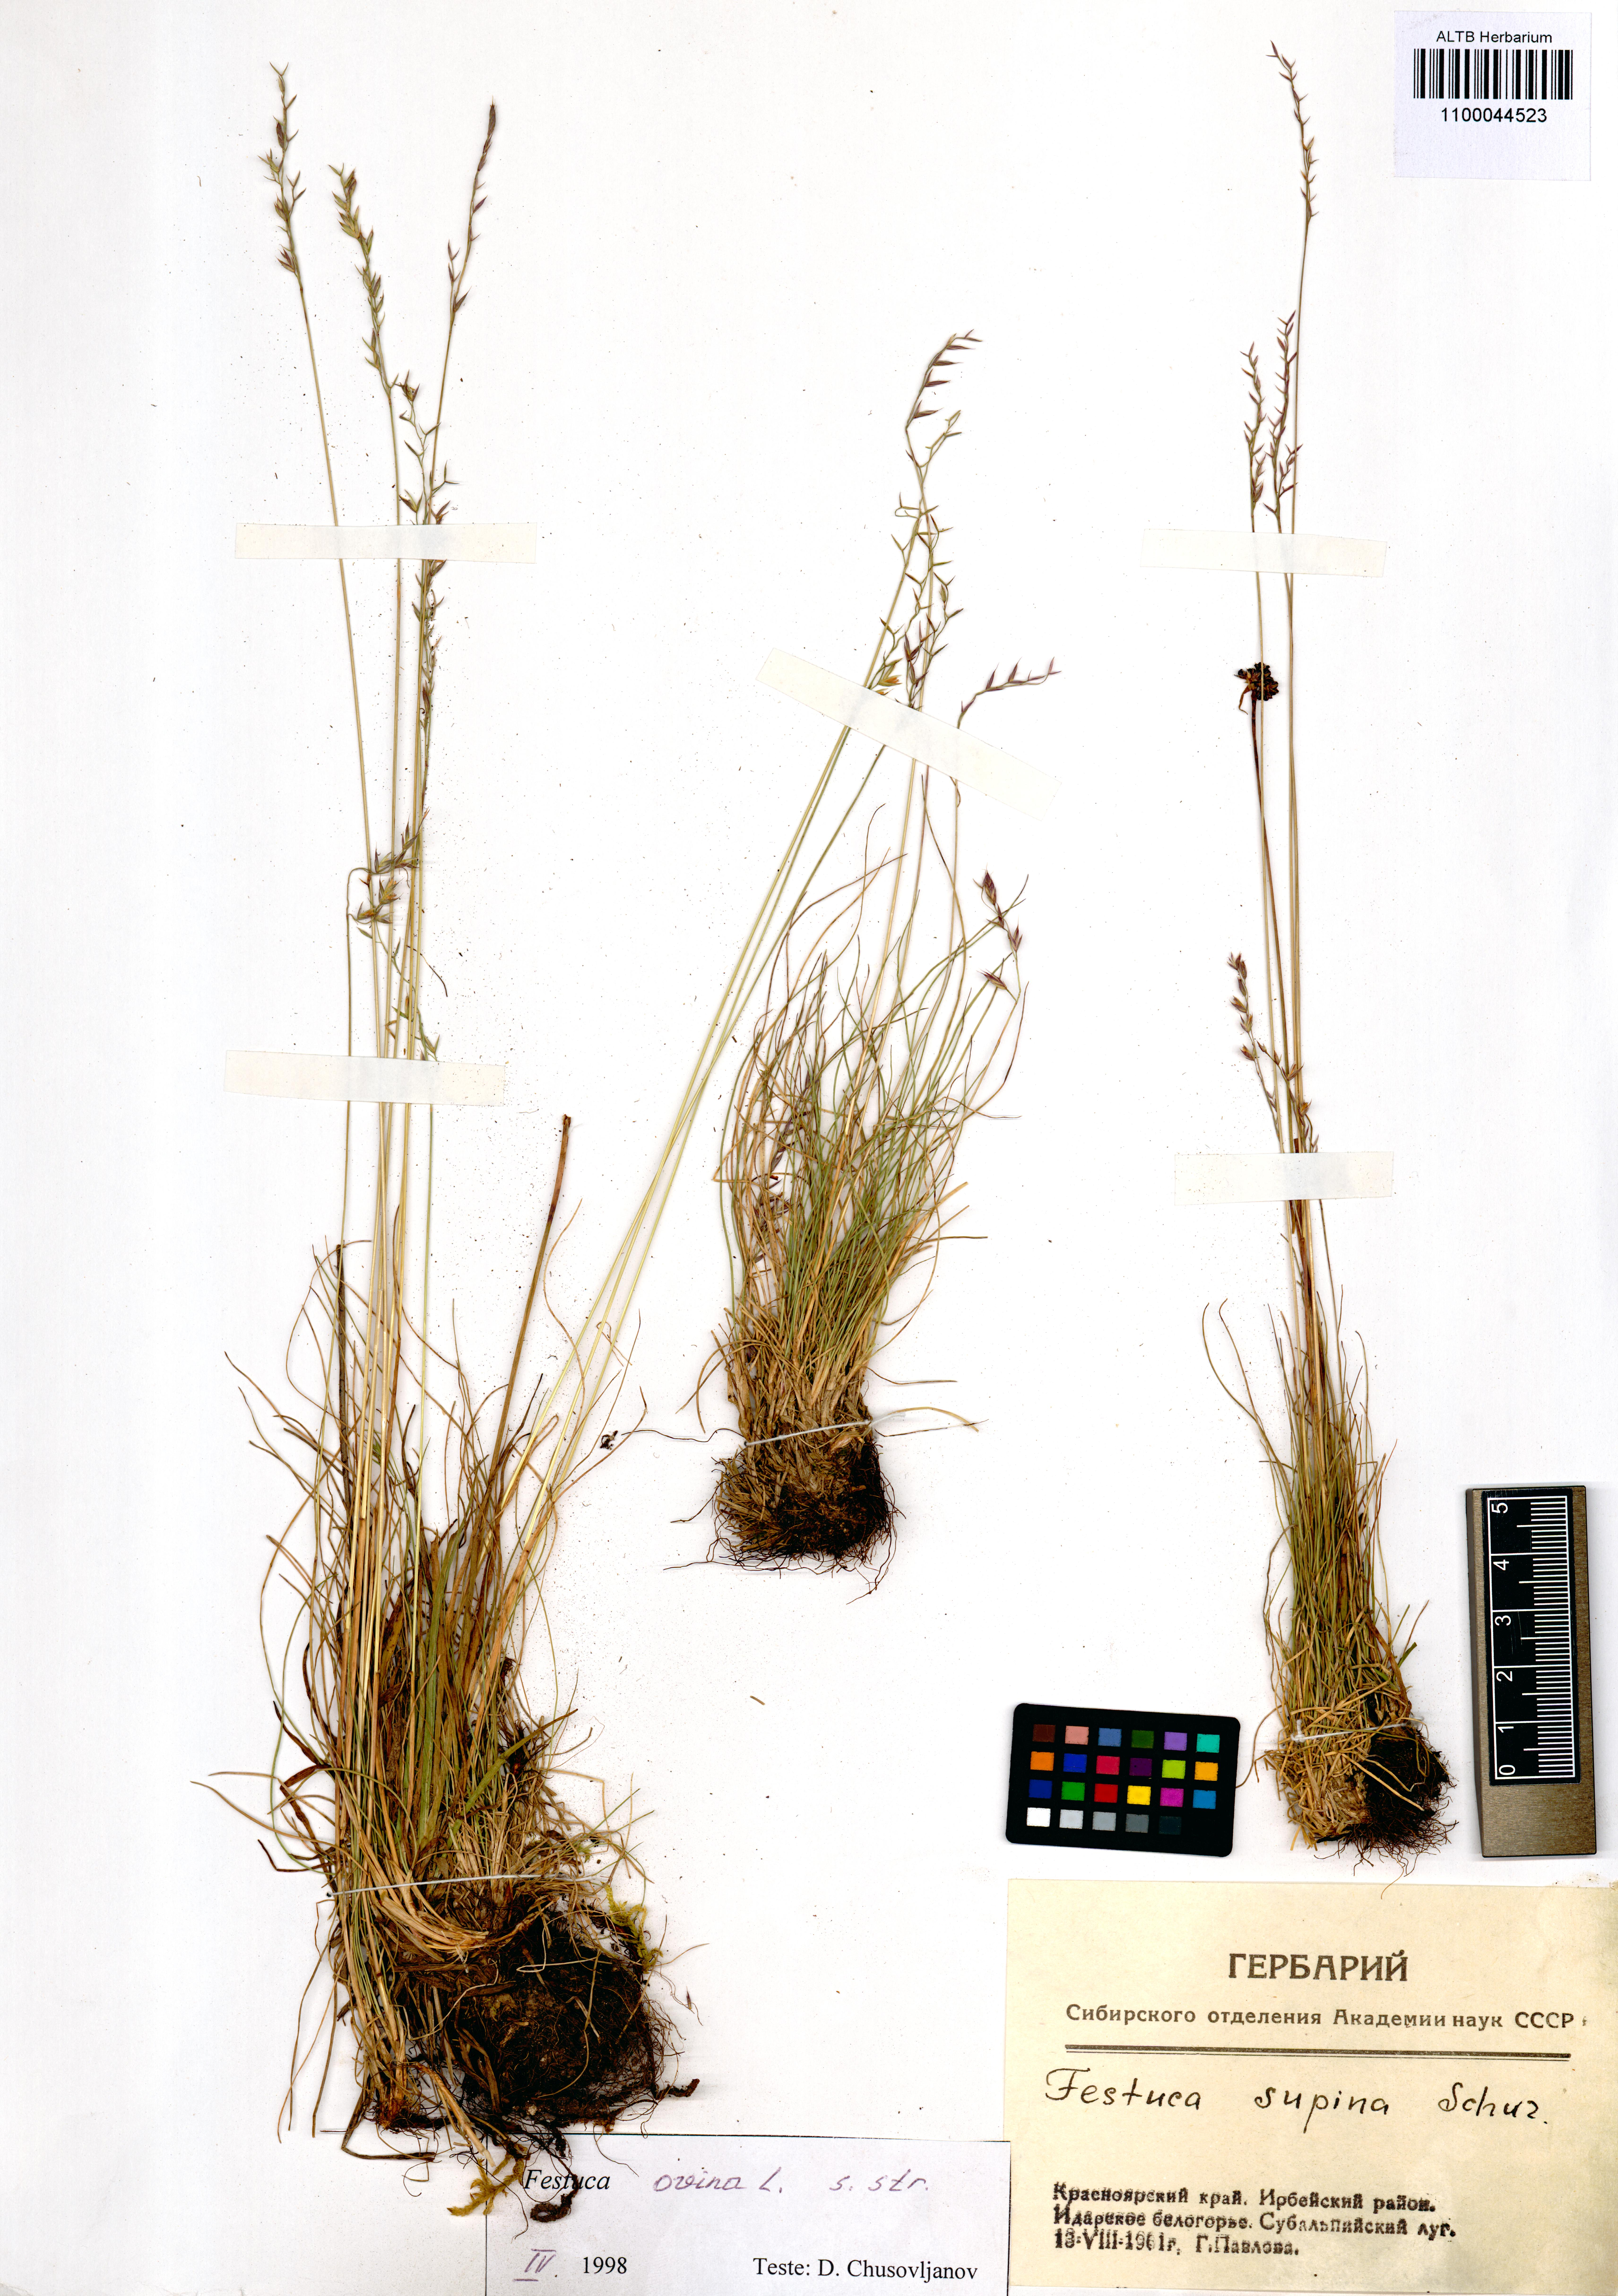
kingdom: Plantae
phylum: Tracheophyta
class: Liliopsida
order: Poales
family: Poaceae
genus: Festuca
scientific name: Festuca ovina
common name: Sheep fescue
